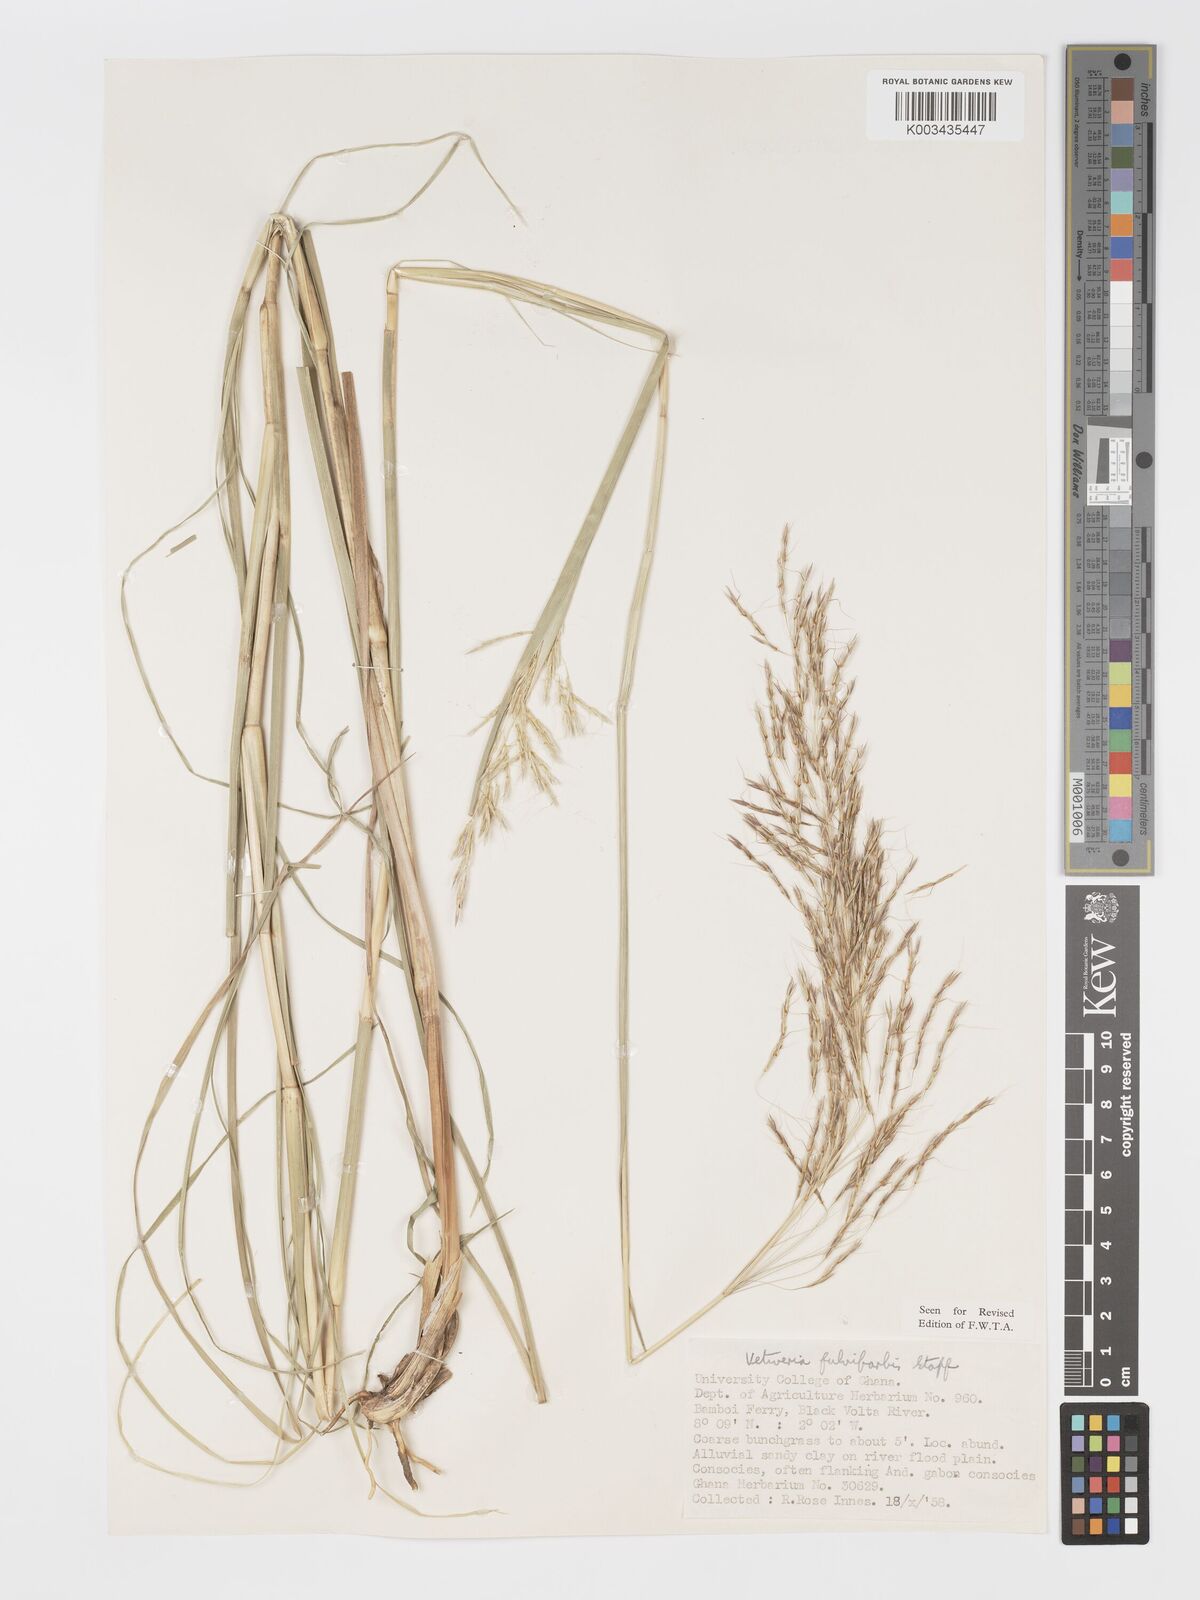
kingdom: Plantae
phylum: Tracheophyta
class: Liliopsida
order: Poales
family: Poaceae
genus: Chrysopogon
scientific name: Chrysopogon fulvibarbis
